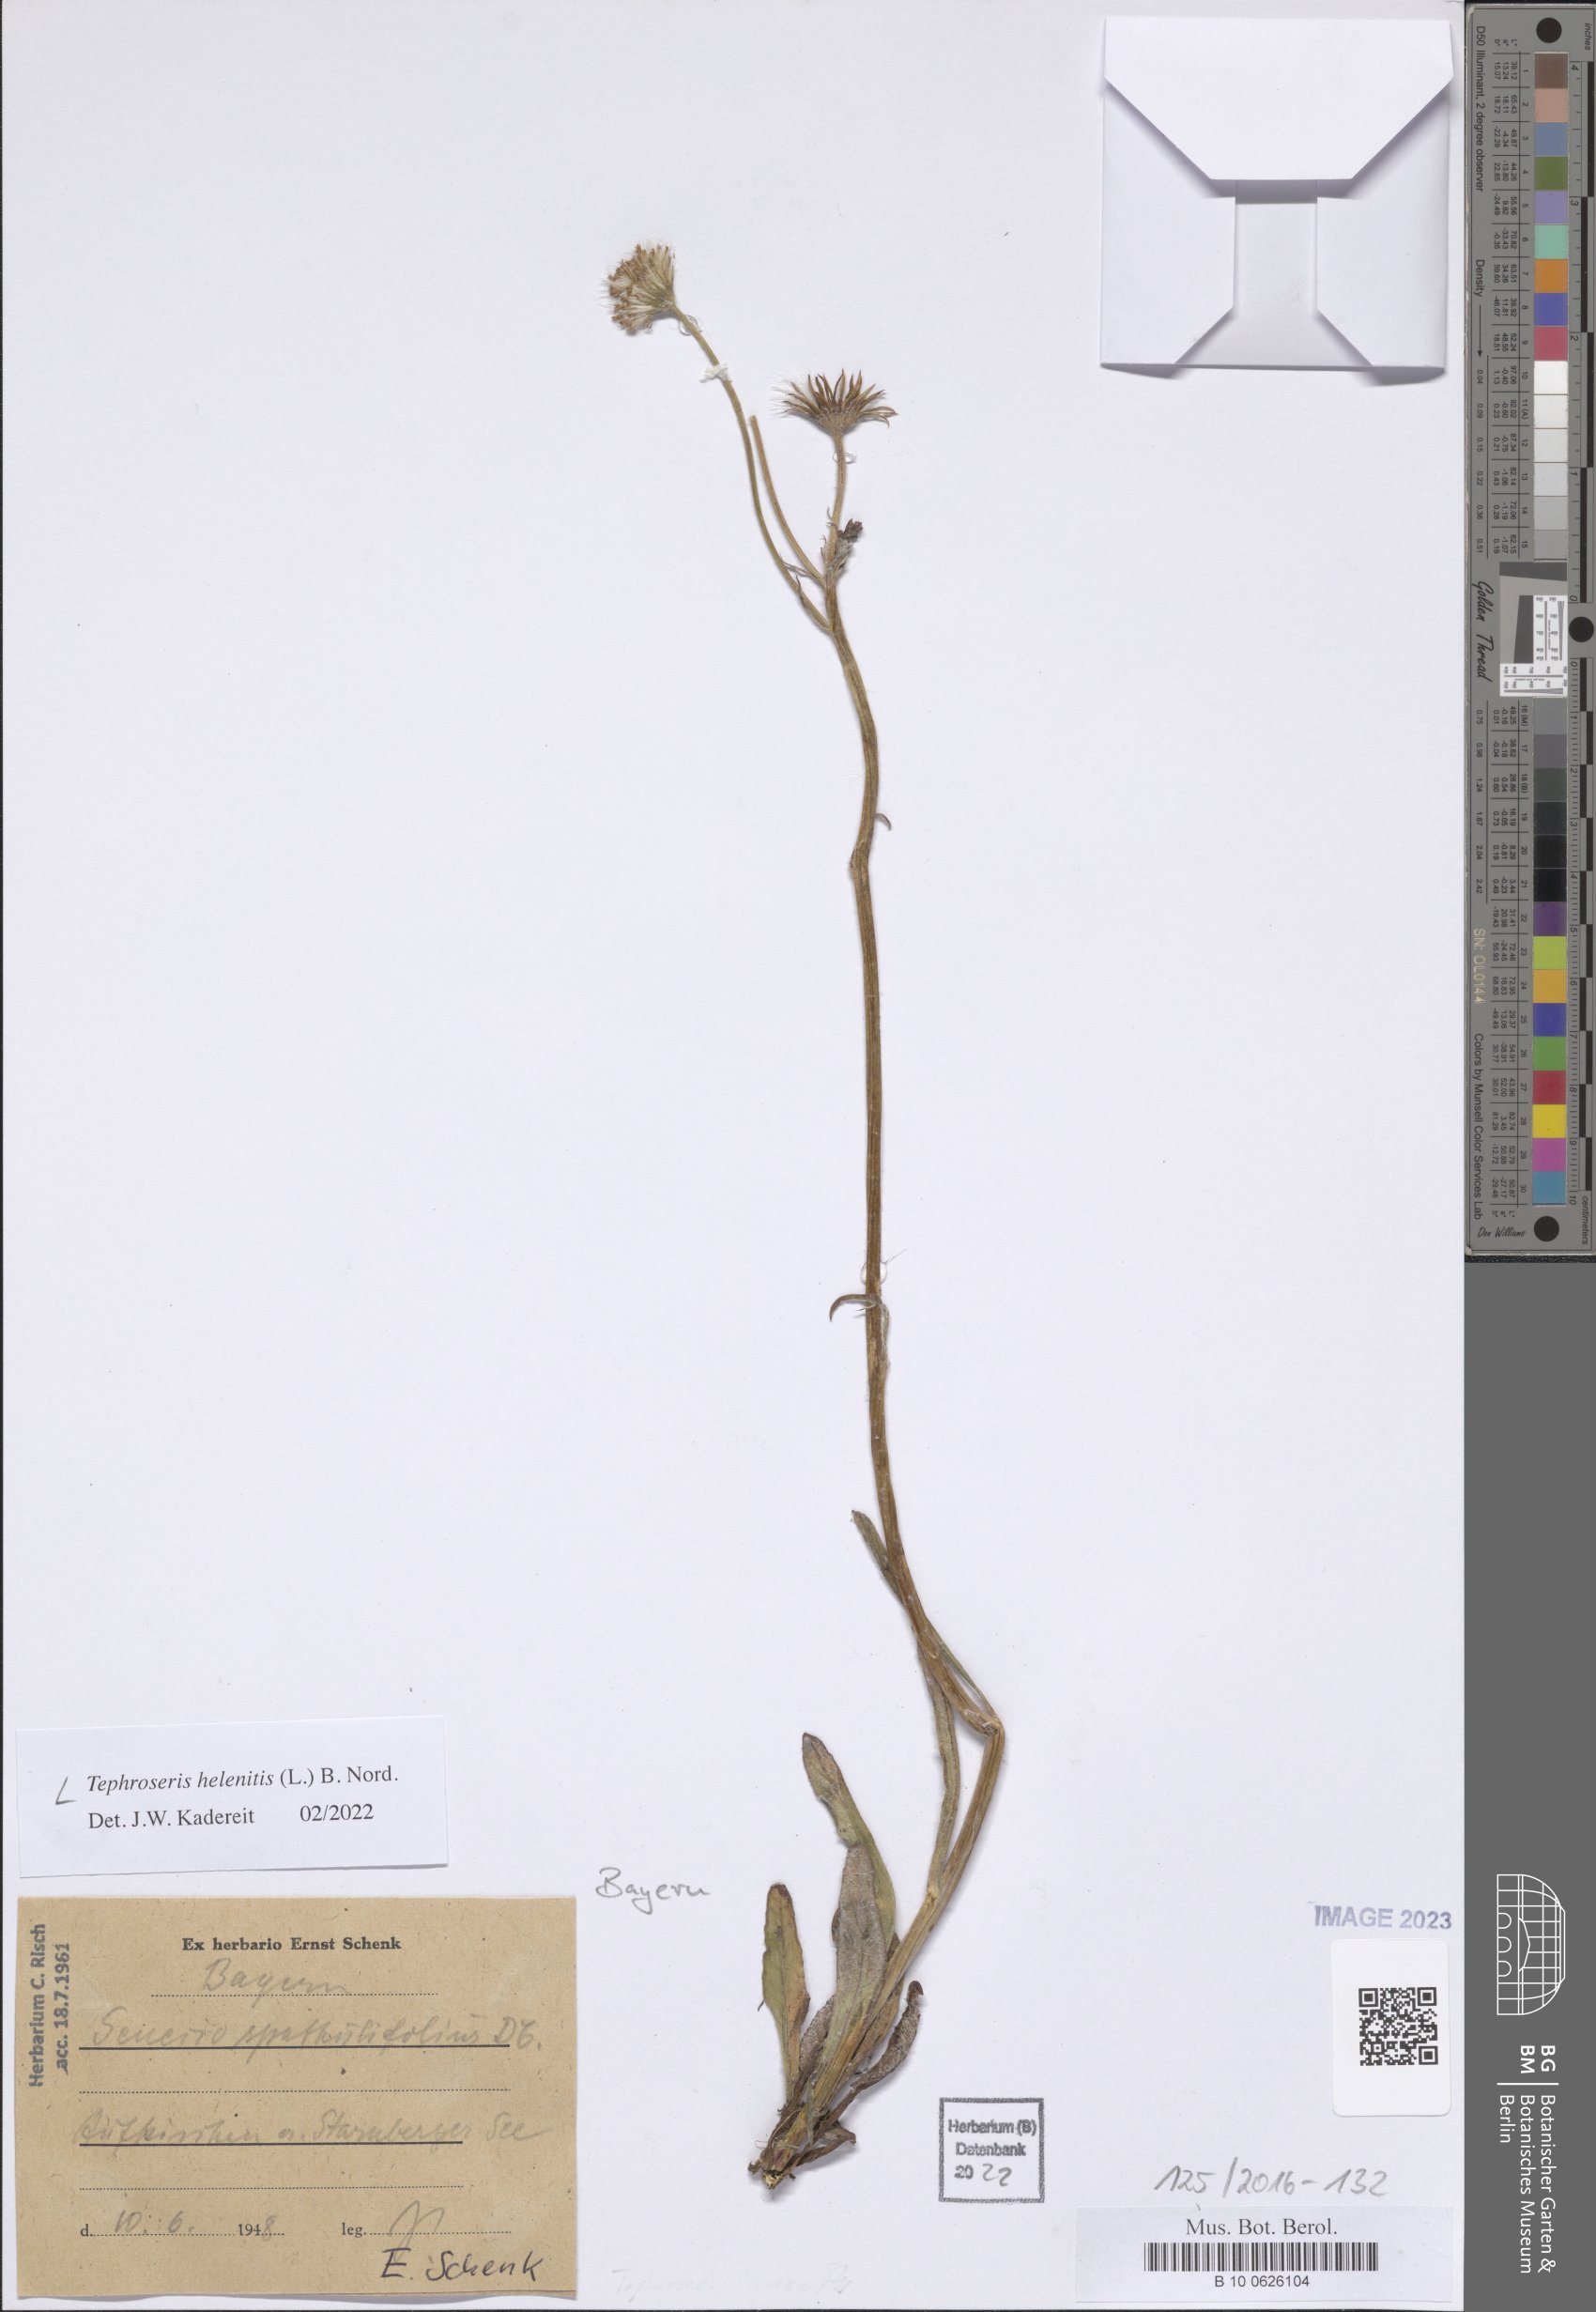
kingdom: Plantae
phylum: Tracheophyta
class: Magnoliopsida
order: Asterales
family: Asteraceae
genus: Tephroseris
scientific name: Tephroseris helenitis
